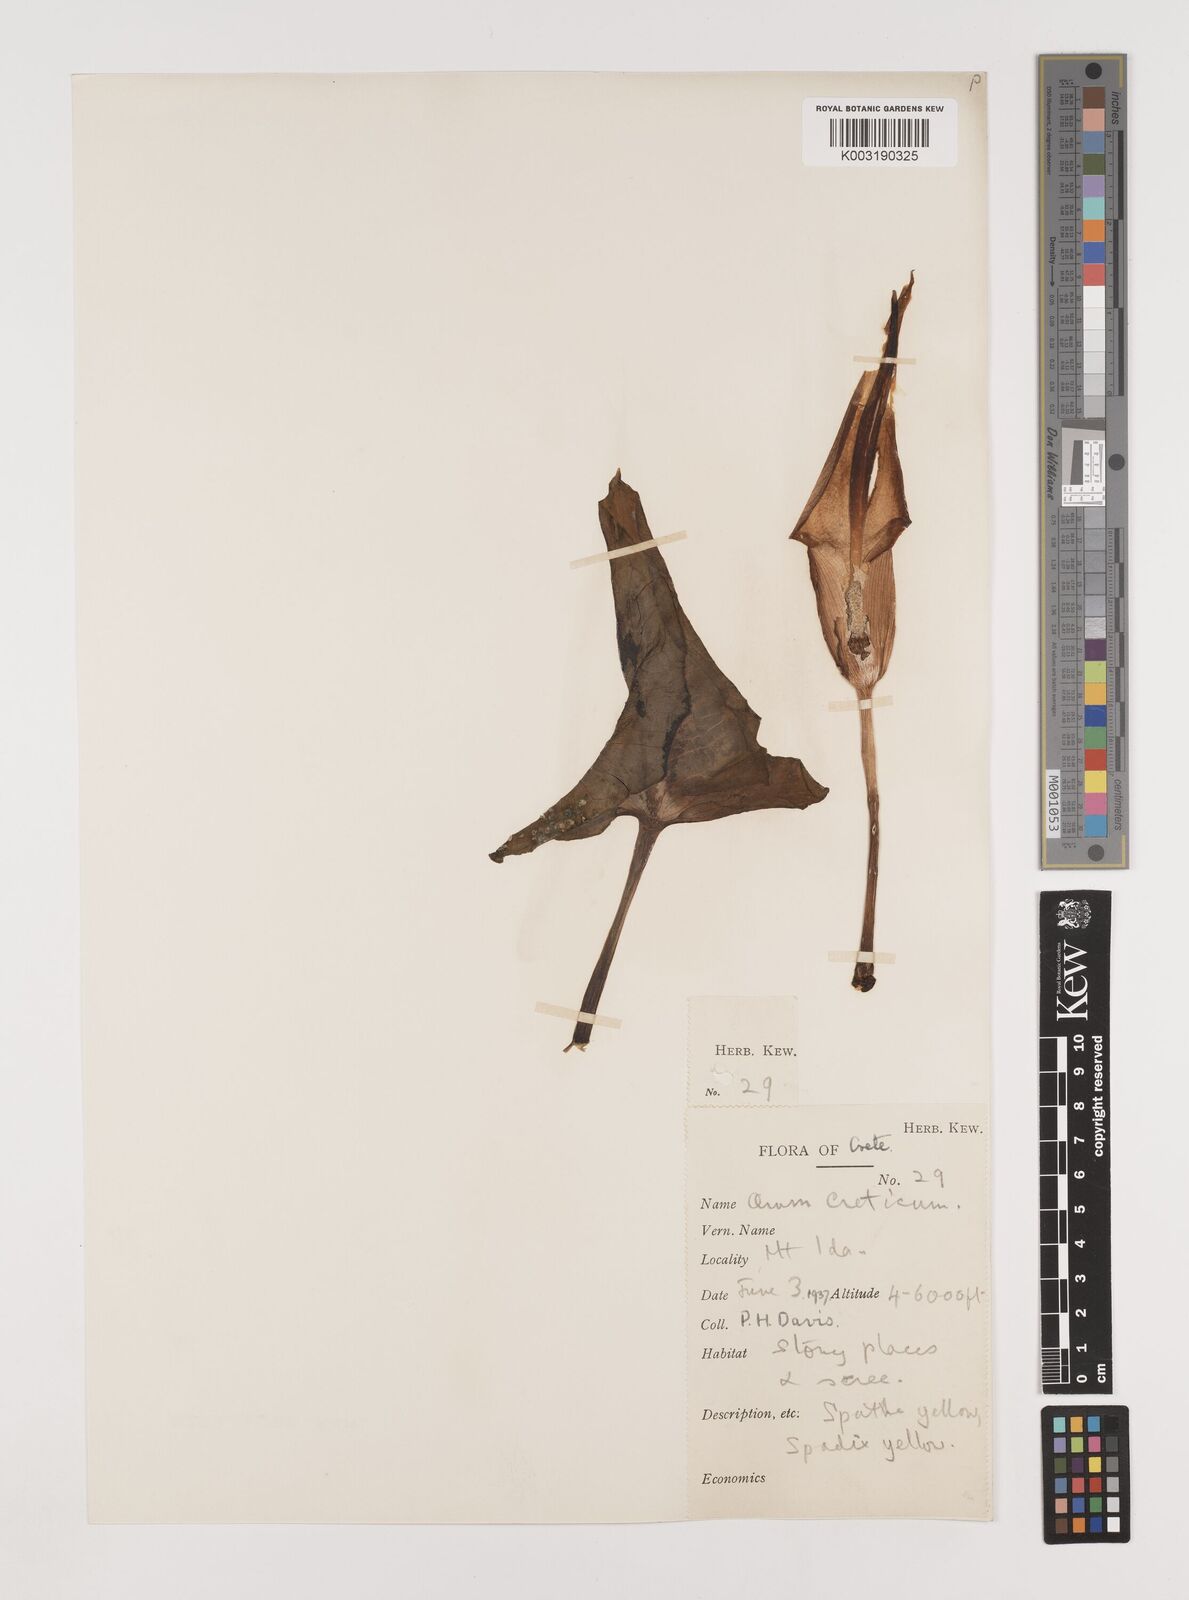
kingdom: Plantae
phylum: Tracheophyta
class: Liliopsida
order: Alismatales
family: Araceae
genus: Arum
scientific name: Arum creticum
